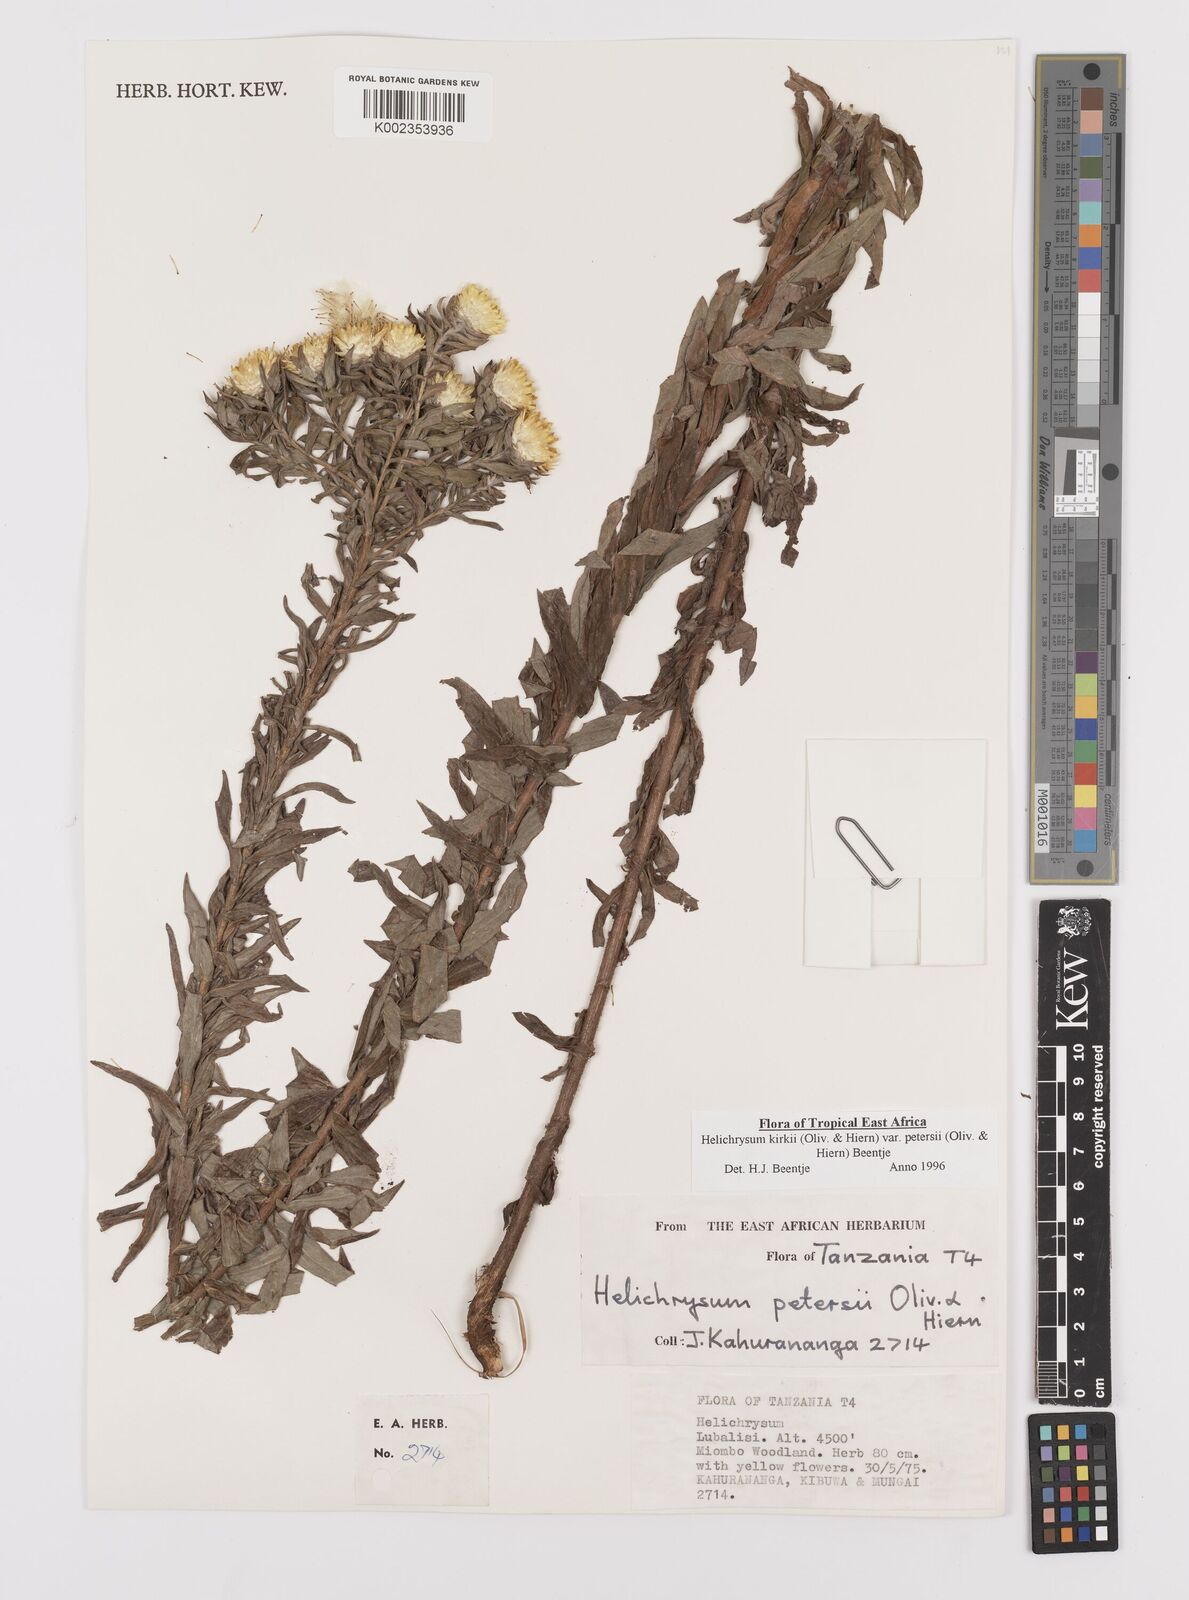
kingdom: Plantae
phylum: Tracheophyta
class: Magnoliopsida
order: Asterales
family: Asteraceae
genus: Helichrysum
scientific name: Helichrysum kirkii
